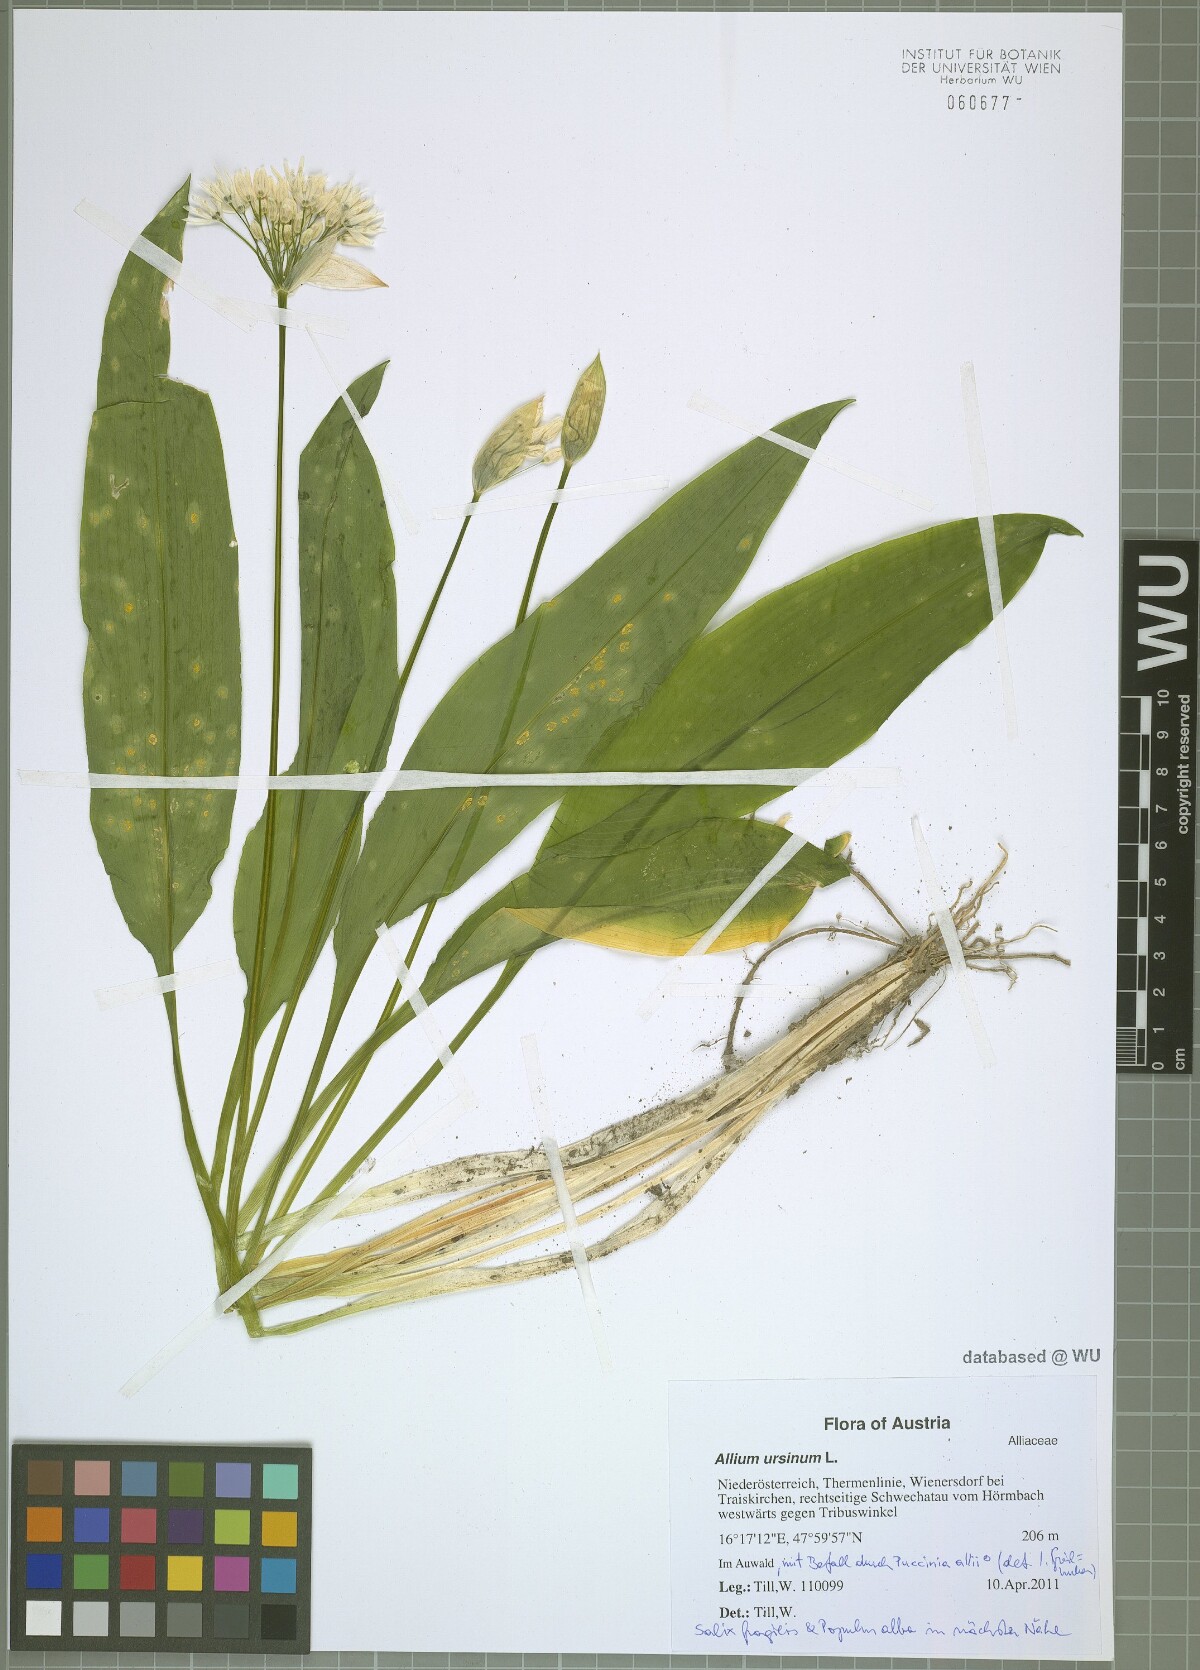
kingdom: Plantae
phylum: Tracheophyta
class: Liliopsida
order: Asparagales
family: Amaryllidaceae
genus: Allium
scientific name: Allium ursinum
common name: Ramsons
